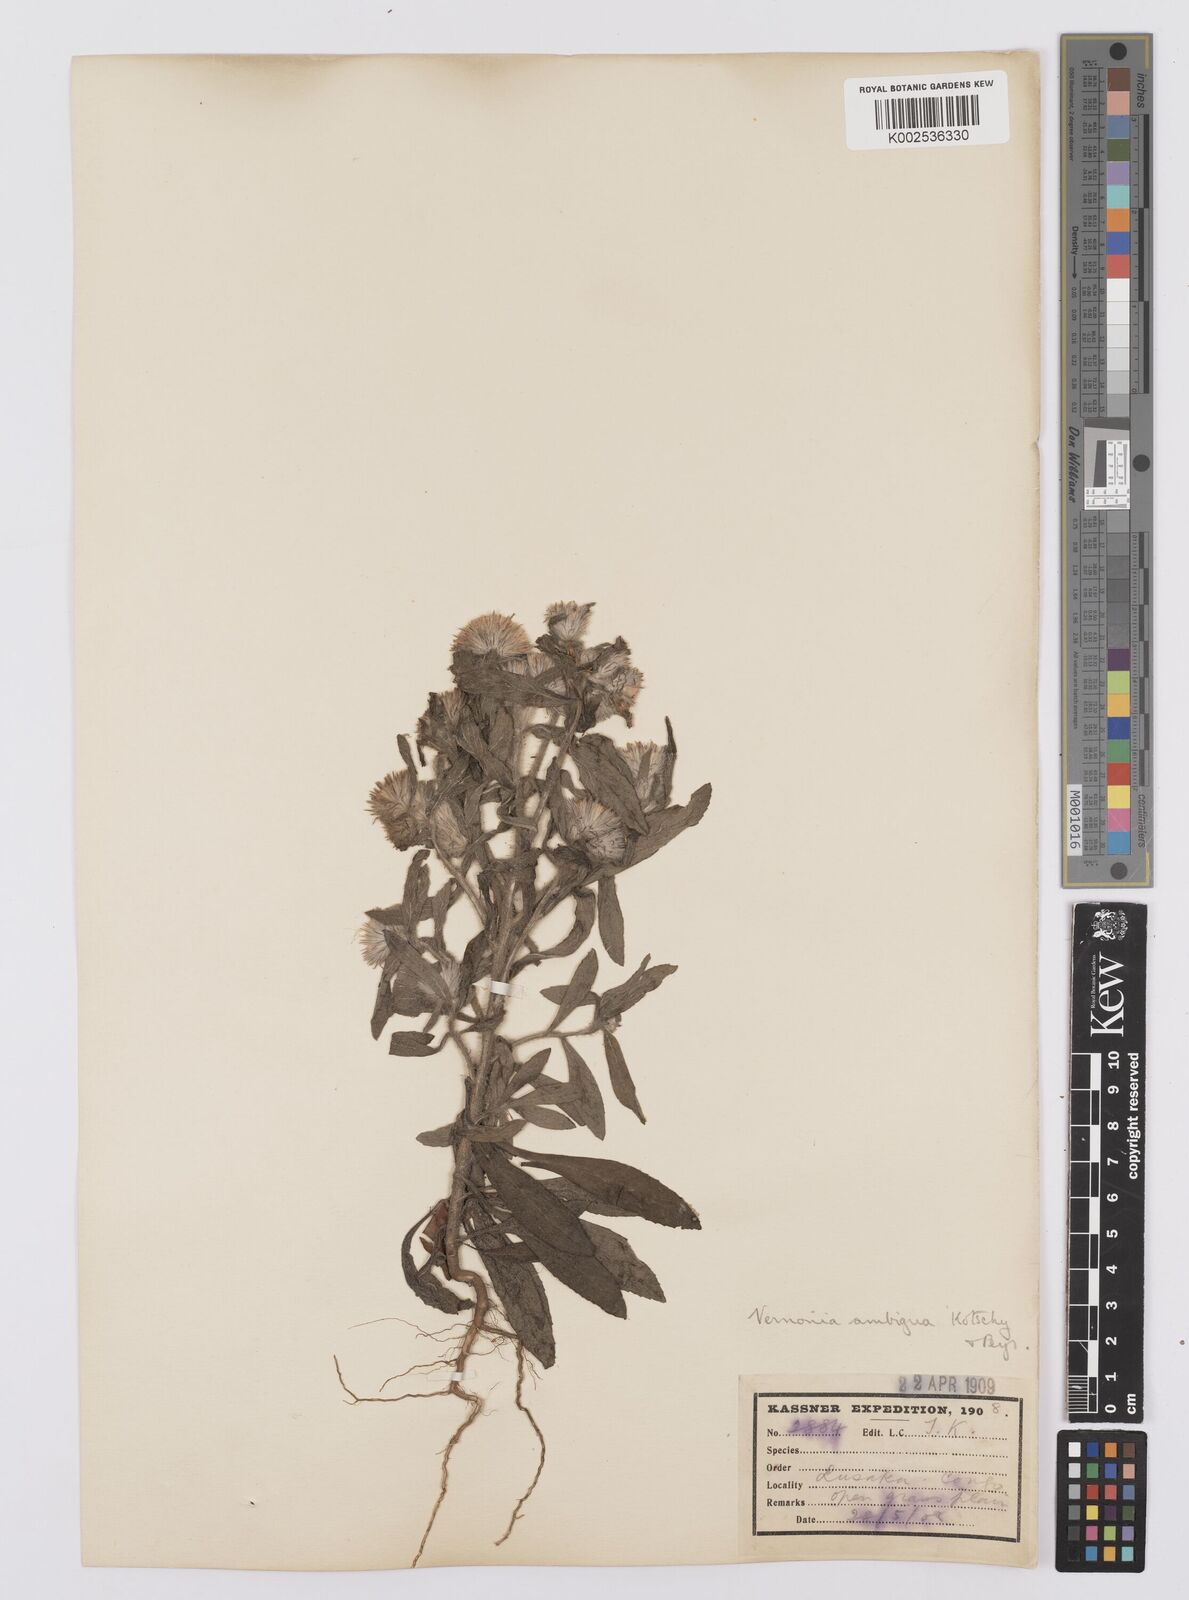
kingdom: Plantae
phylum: Tracheophyta
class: Magnoliopsida
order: Asterales
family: Asteraceae
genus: Vernoniastrum
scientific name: Vernoniastrum ambiguum
